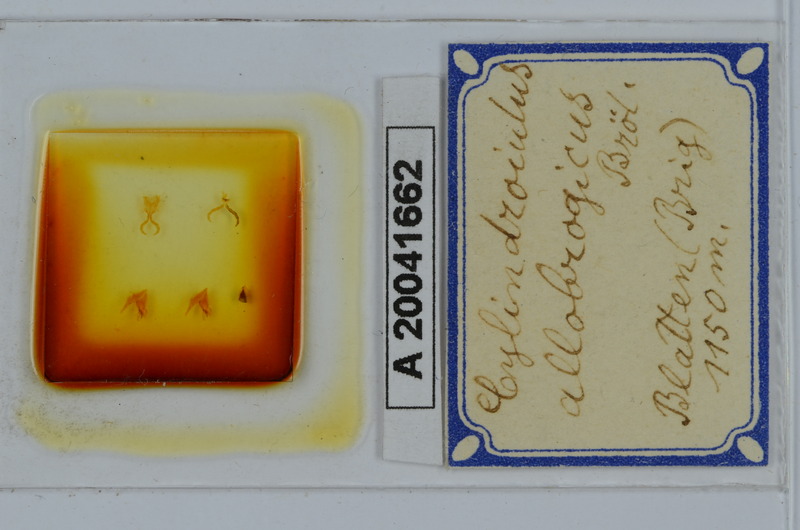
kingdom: Animalia
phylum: Arthropoda
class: Diplopoda
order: Julida
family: Julidae
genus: Cylindroiulus
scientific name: Cylindroiulus allobrogicus
